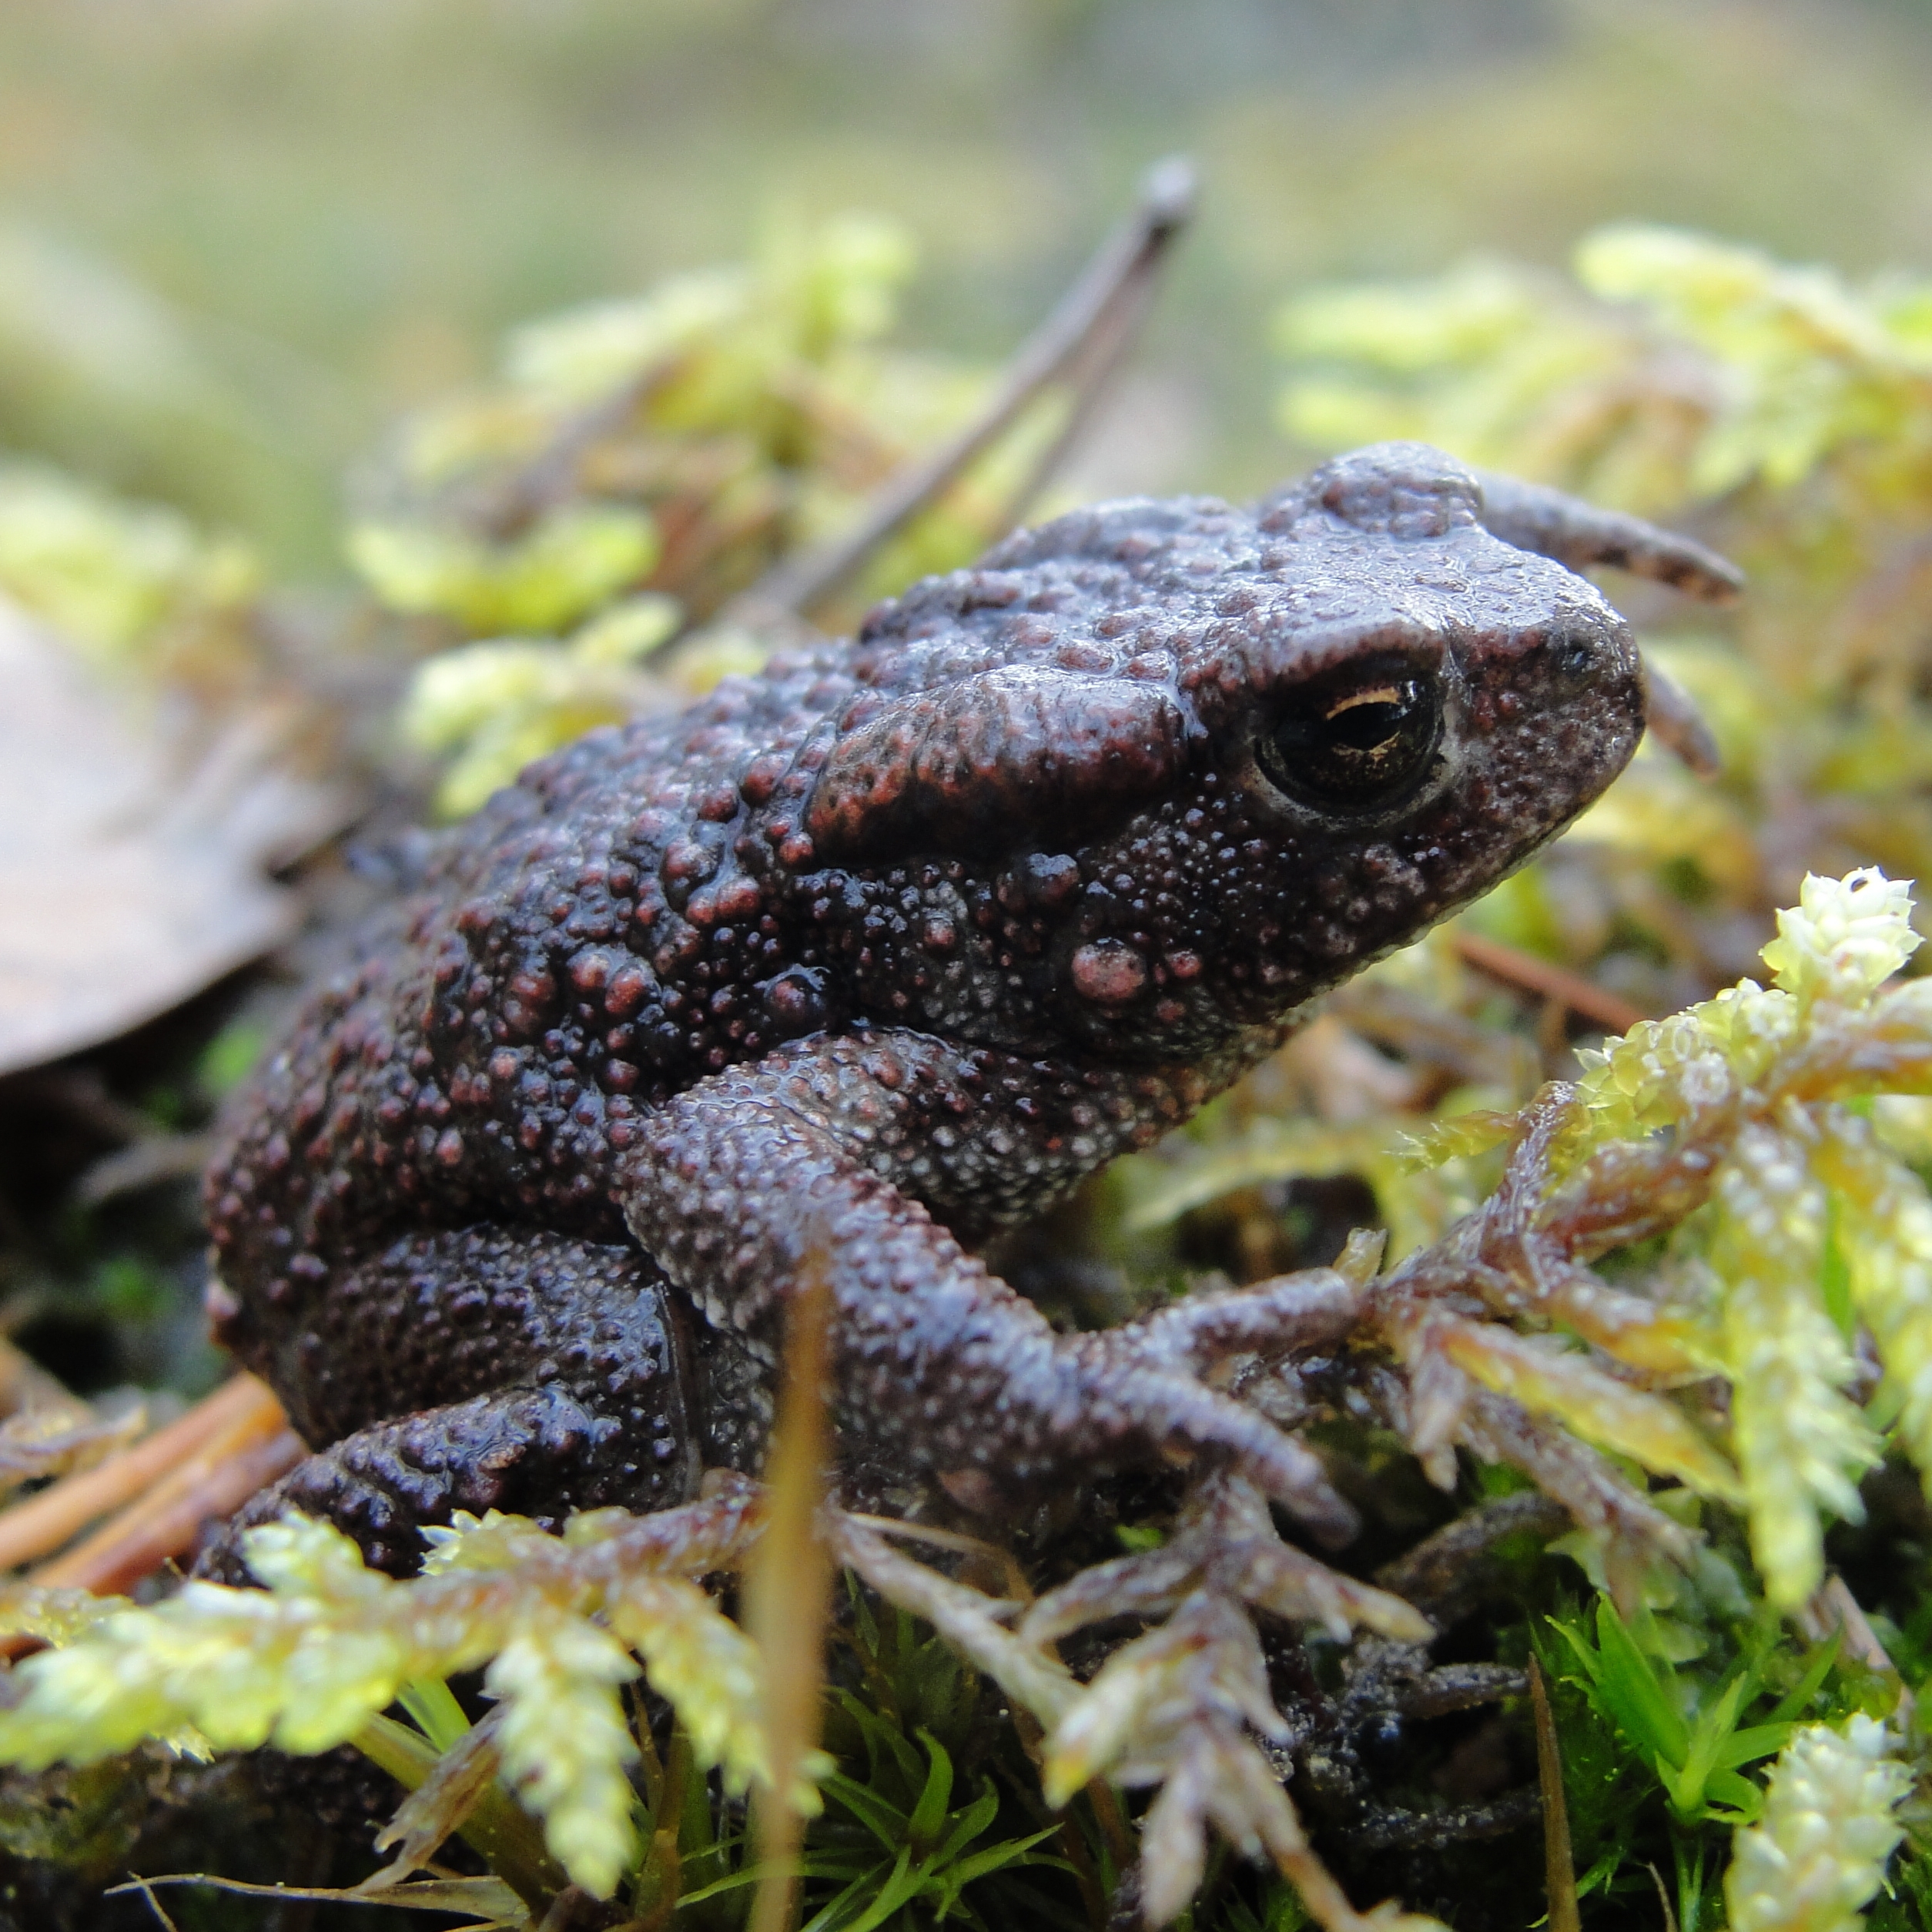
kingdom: Animalia
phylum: Chordata
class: Amphibia
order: Anura
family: Bufonidae
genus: Bufo
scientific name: Bufo bufo
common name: Common toad
